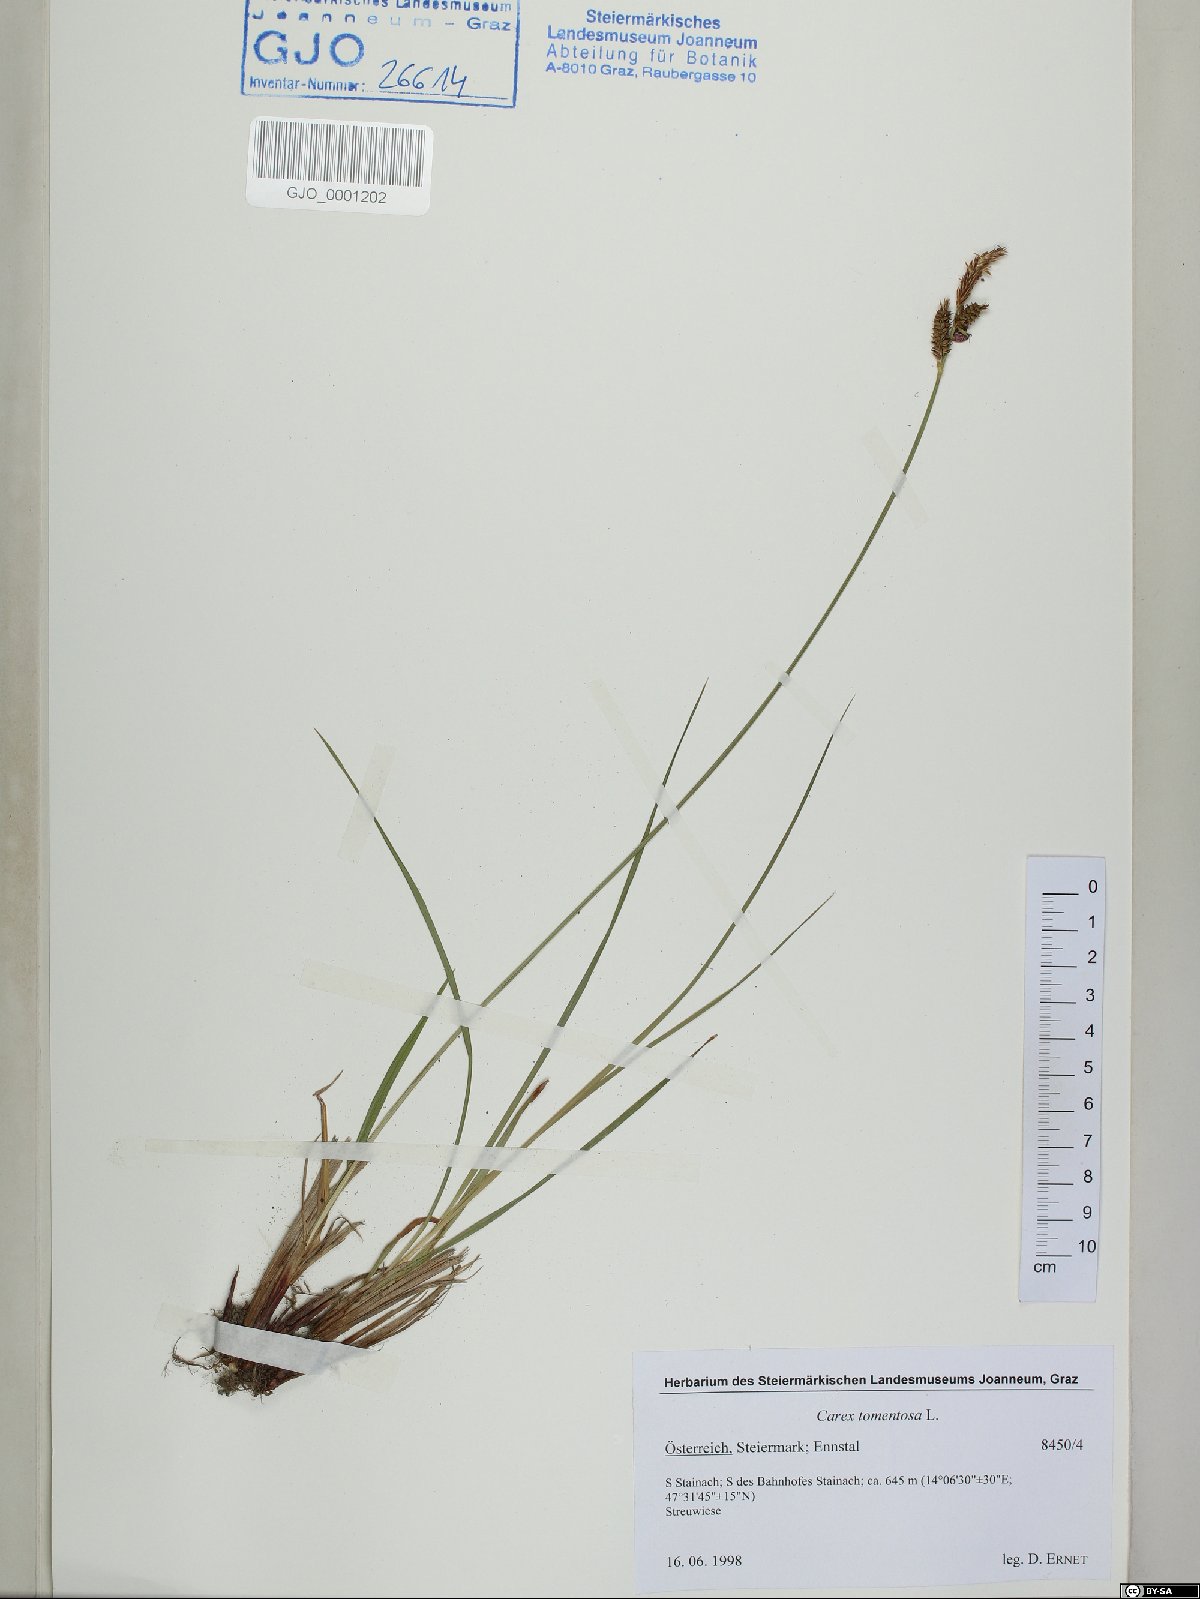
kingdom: Plantae
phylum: Tracheophyta
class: Liliopsida
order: Poales
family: Cyperaceae
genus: Carex
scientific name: Carex tomentosa
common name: Downy-fruited sedge
